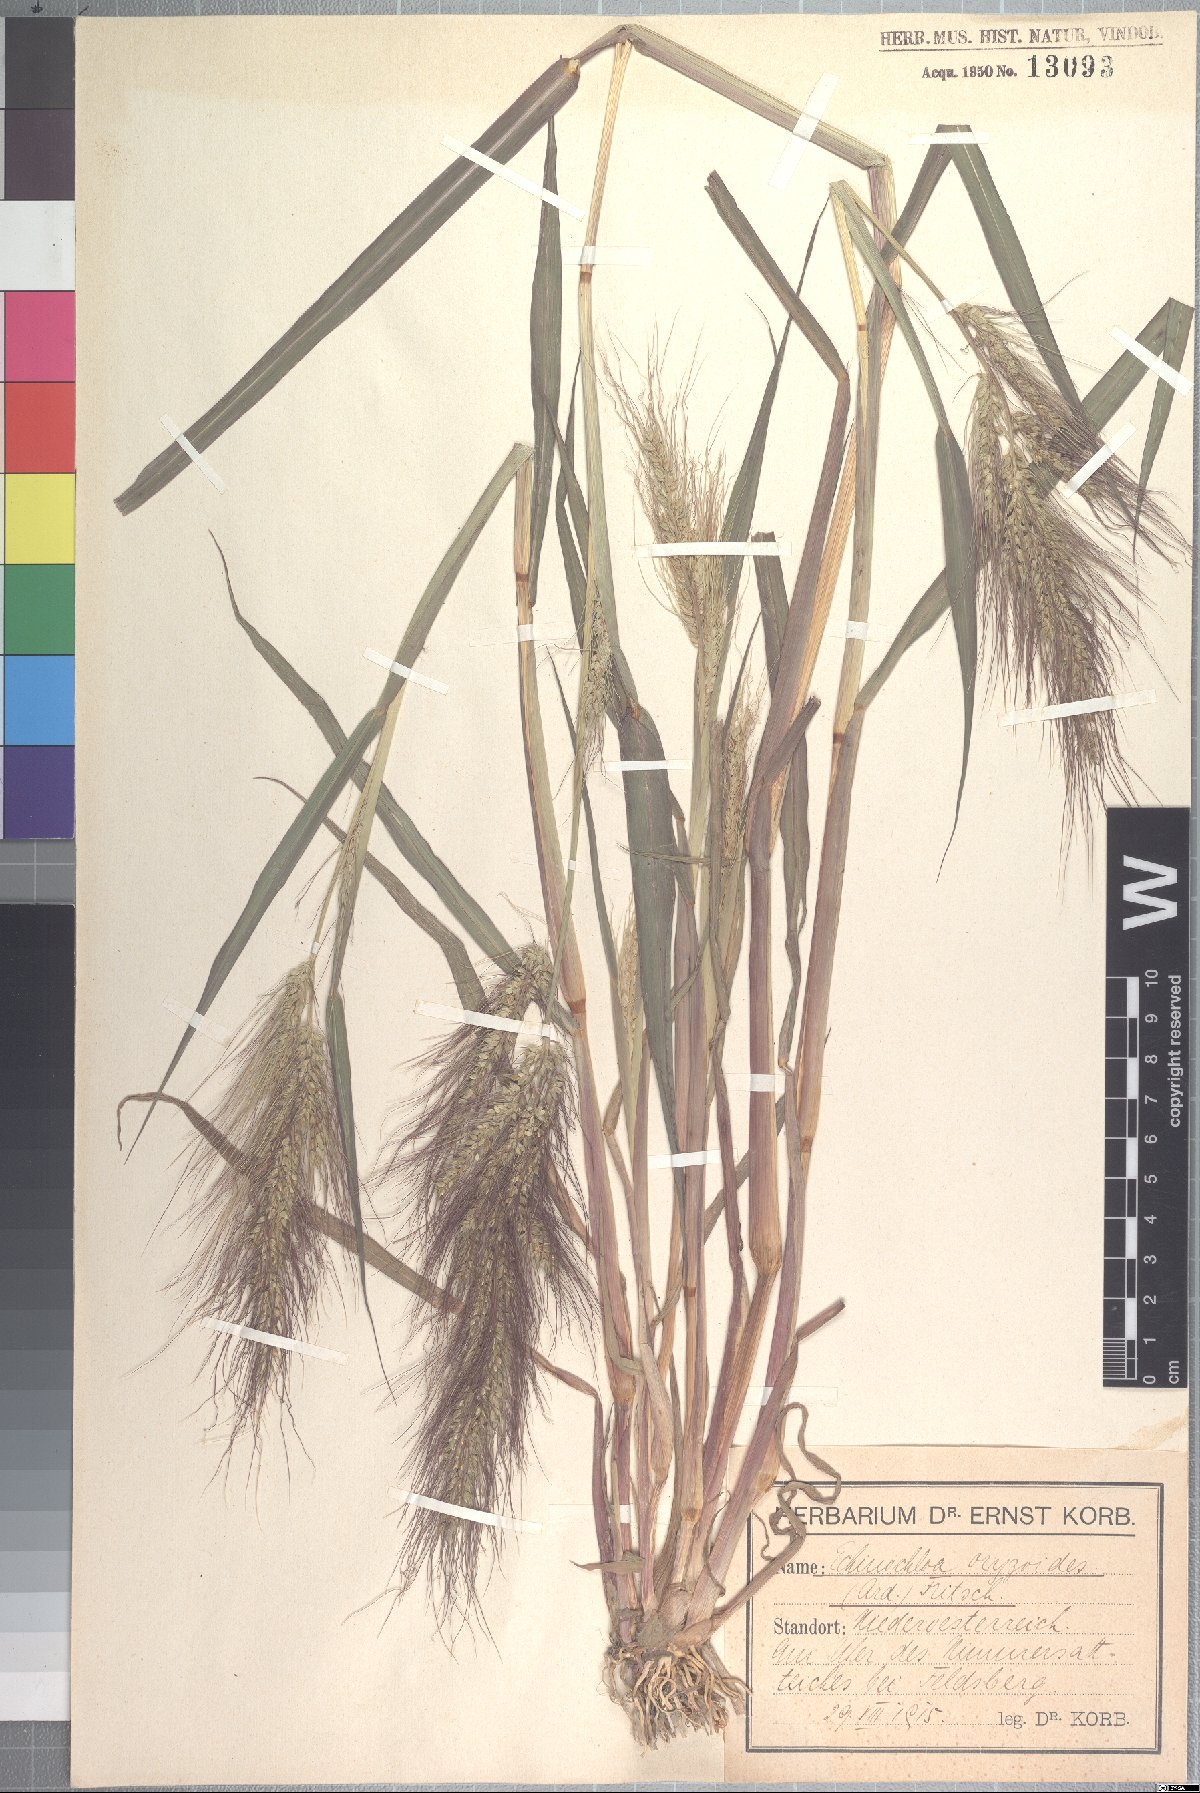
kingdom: Plantae
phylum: Tracheophyta
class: Liliopsida
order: Poales
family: Poaceae
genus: Echinochloa
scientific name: Echinochloa oryzoides
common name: Early water grass
